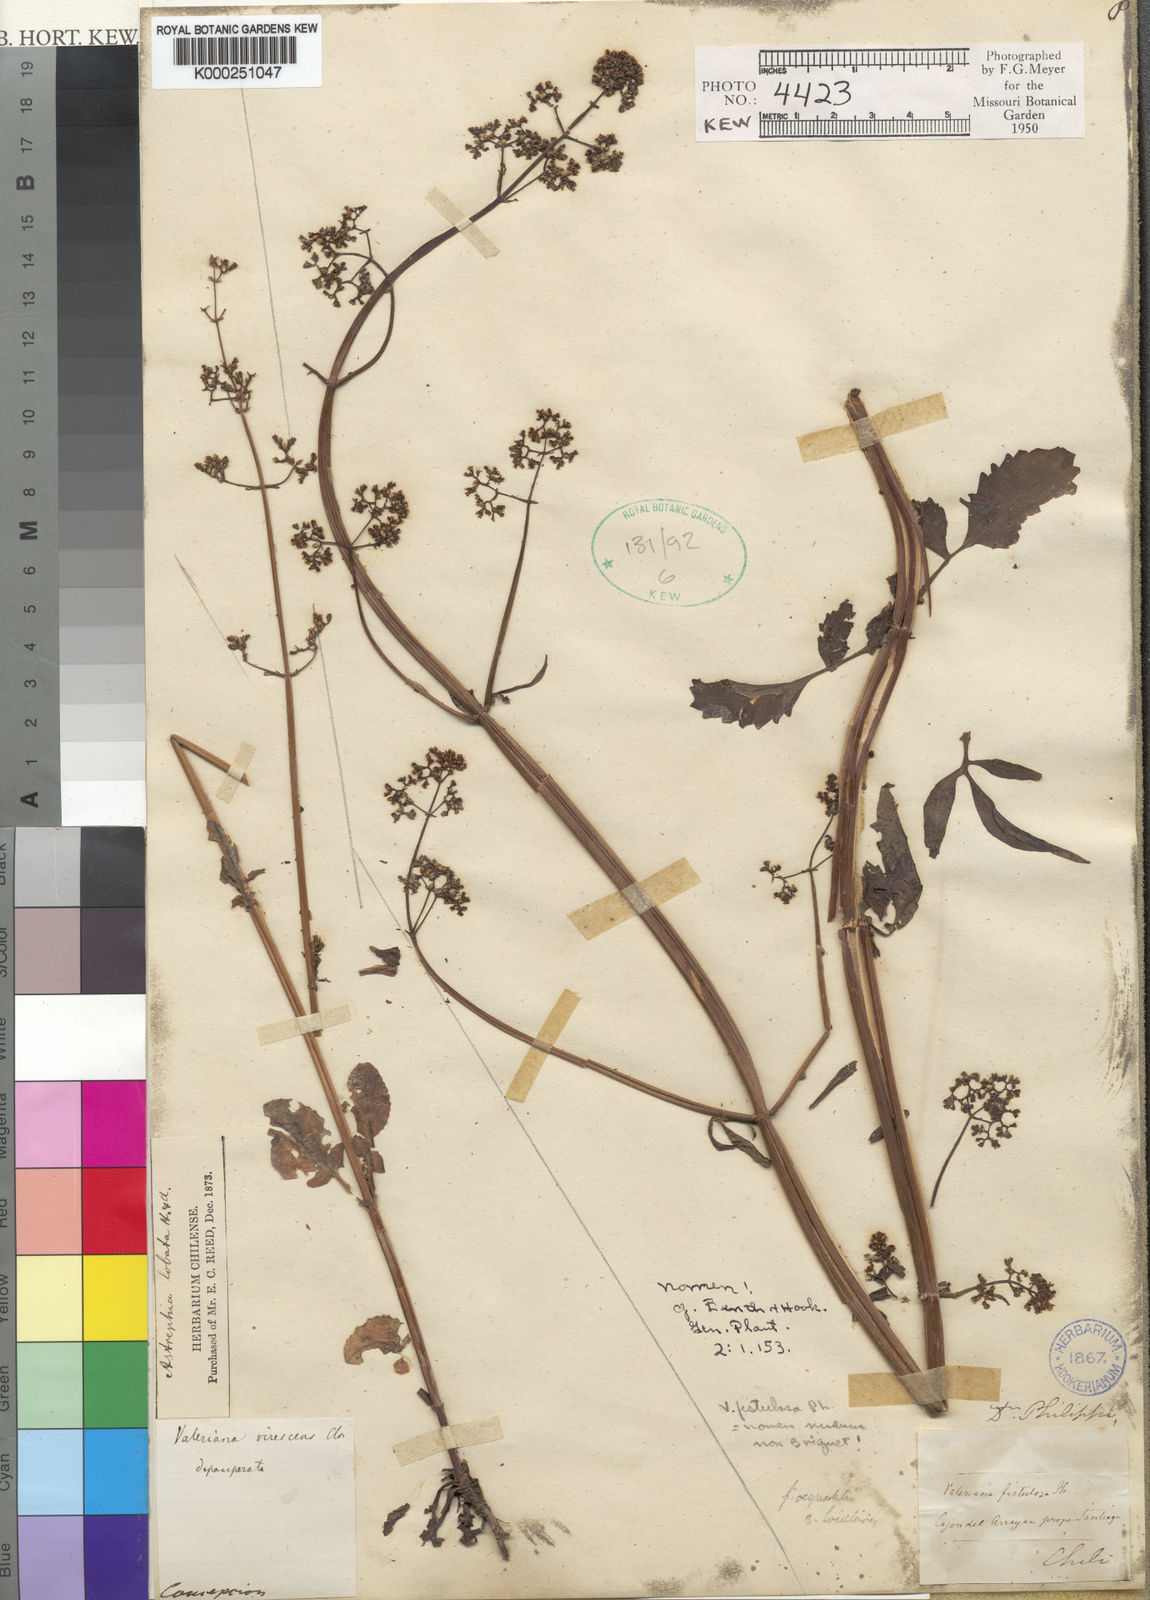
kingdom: Plantae
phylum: Tracheophyta
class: Magnoliopsida
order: Dipsacales
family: Caprifoliaceae
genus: Valeriana
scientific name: Valeriana crispa
